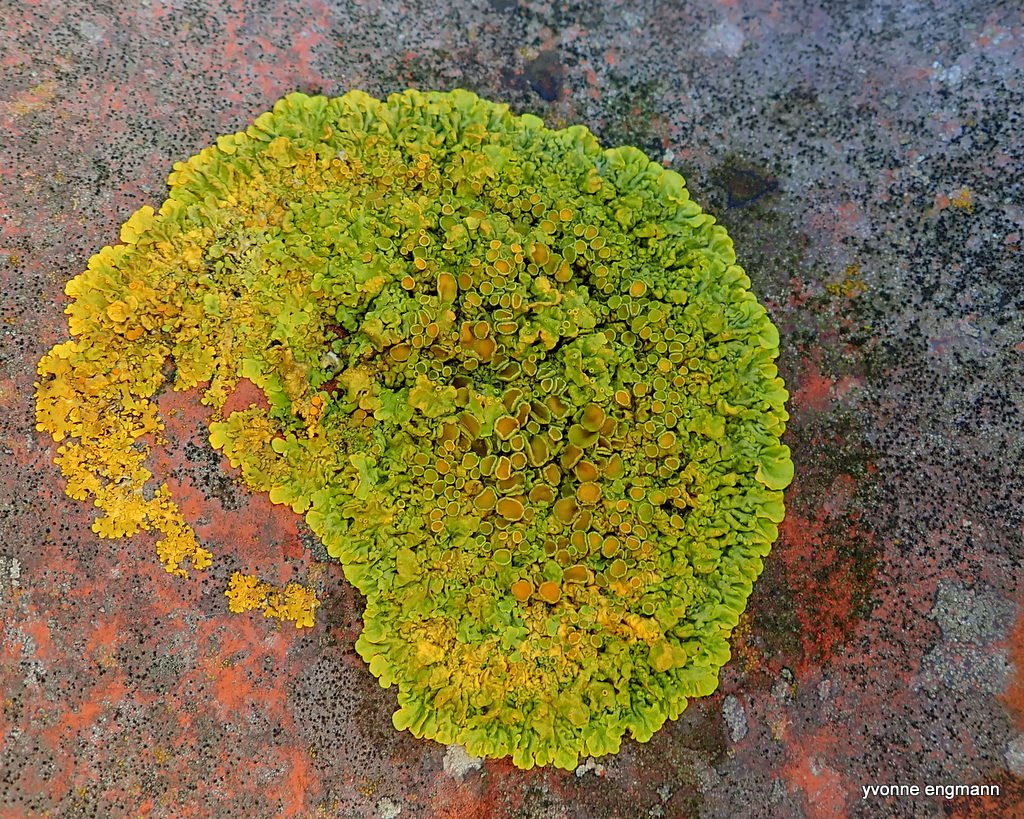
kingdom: Fungi
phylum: Ascomycota
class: Lecanoromycetes
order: Teloschistales
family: Teloschistaceae
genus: Xanthoria
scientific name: Xanthoria parietina
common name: almindelig væggelav
